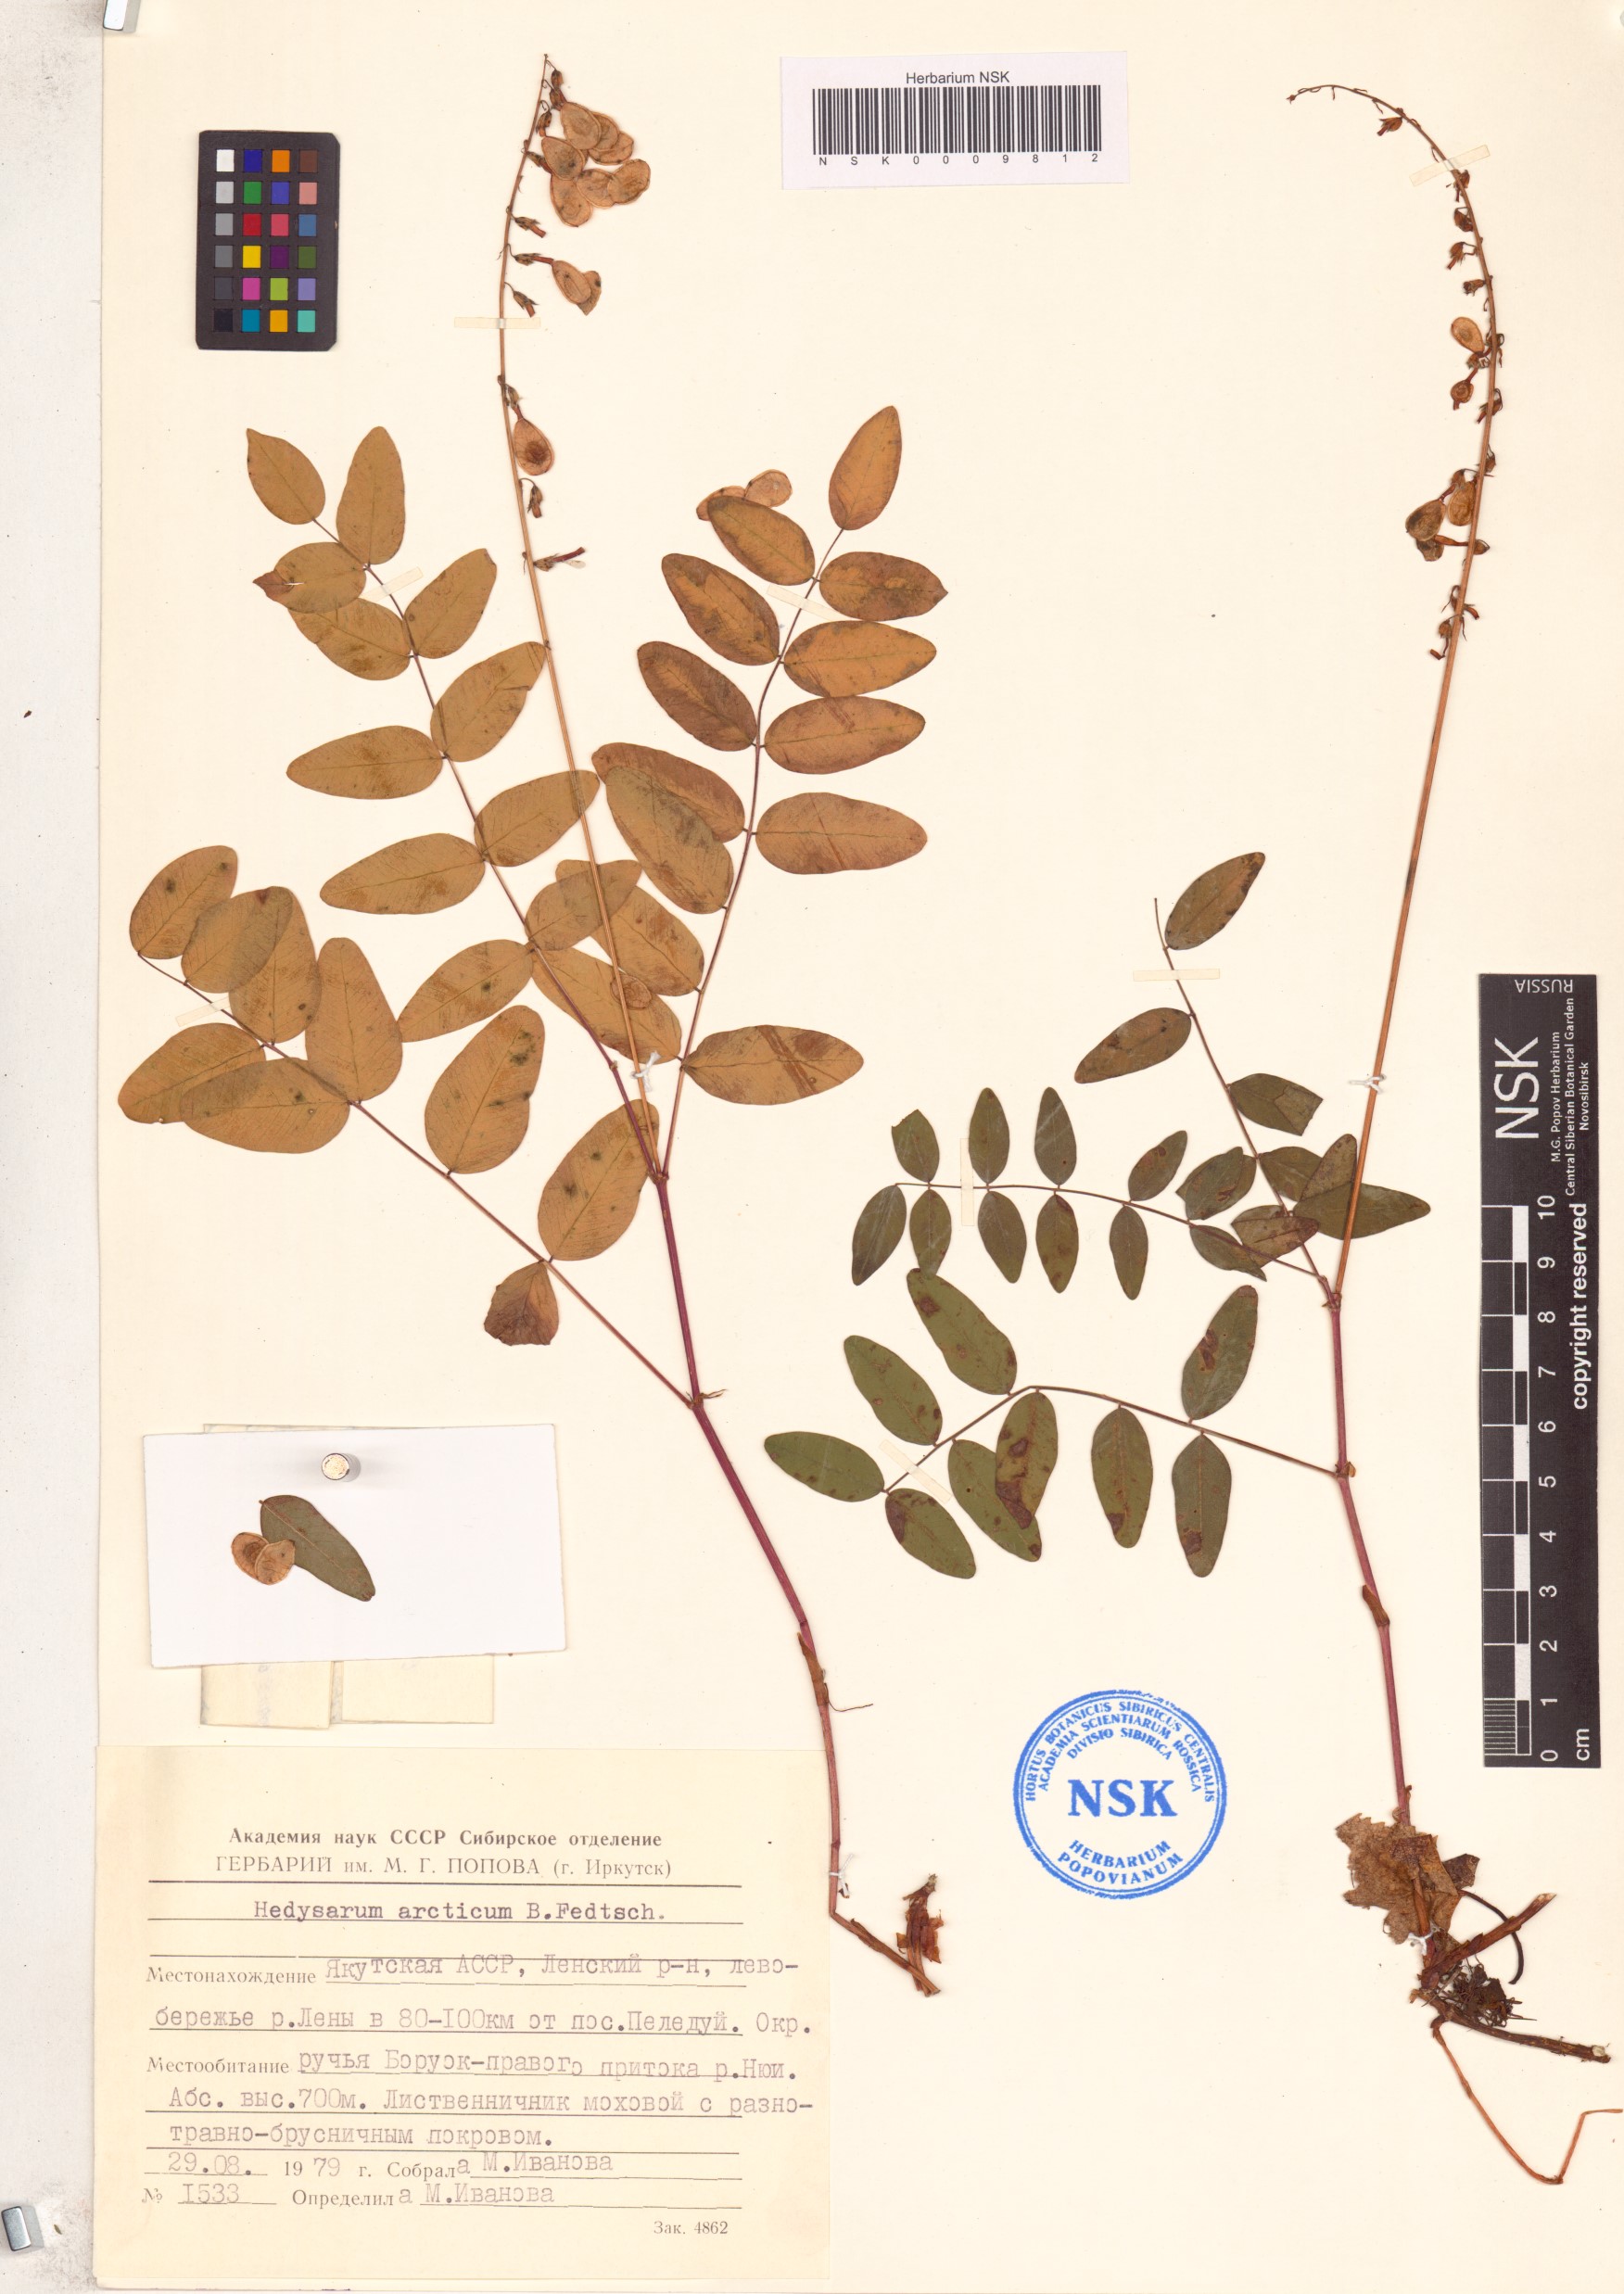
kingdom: Plantae
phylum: Tracheophyta
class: Magnoliopsida
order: Fabales
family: Fabaceae
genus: Hedysarum
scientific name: Hedysarum hedysaroides
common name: Alpine french-honeysuckle
